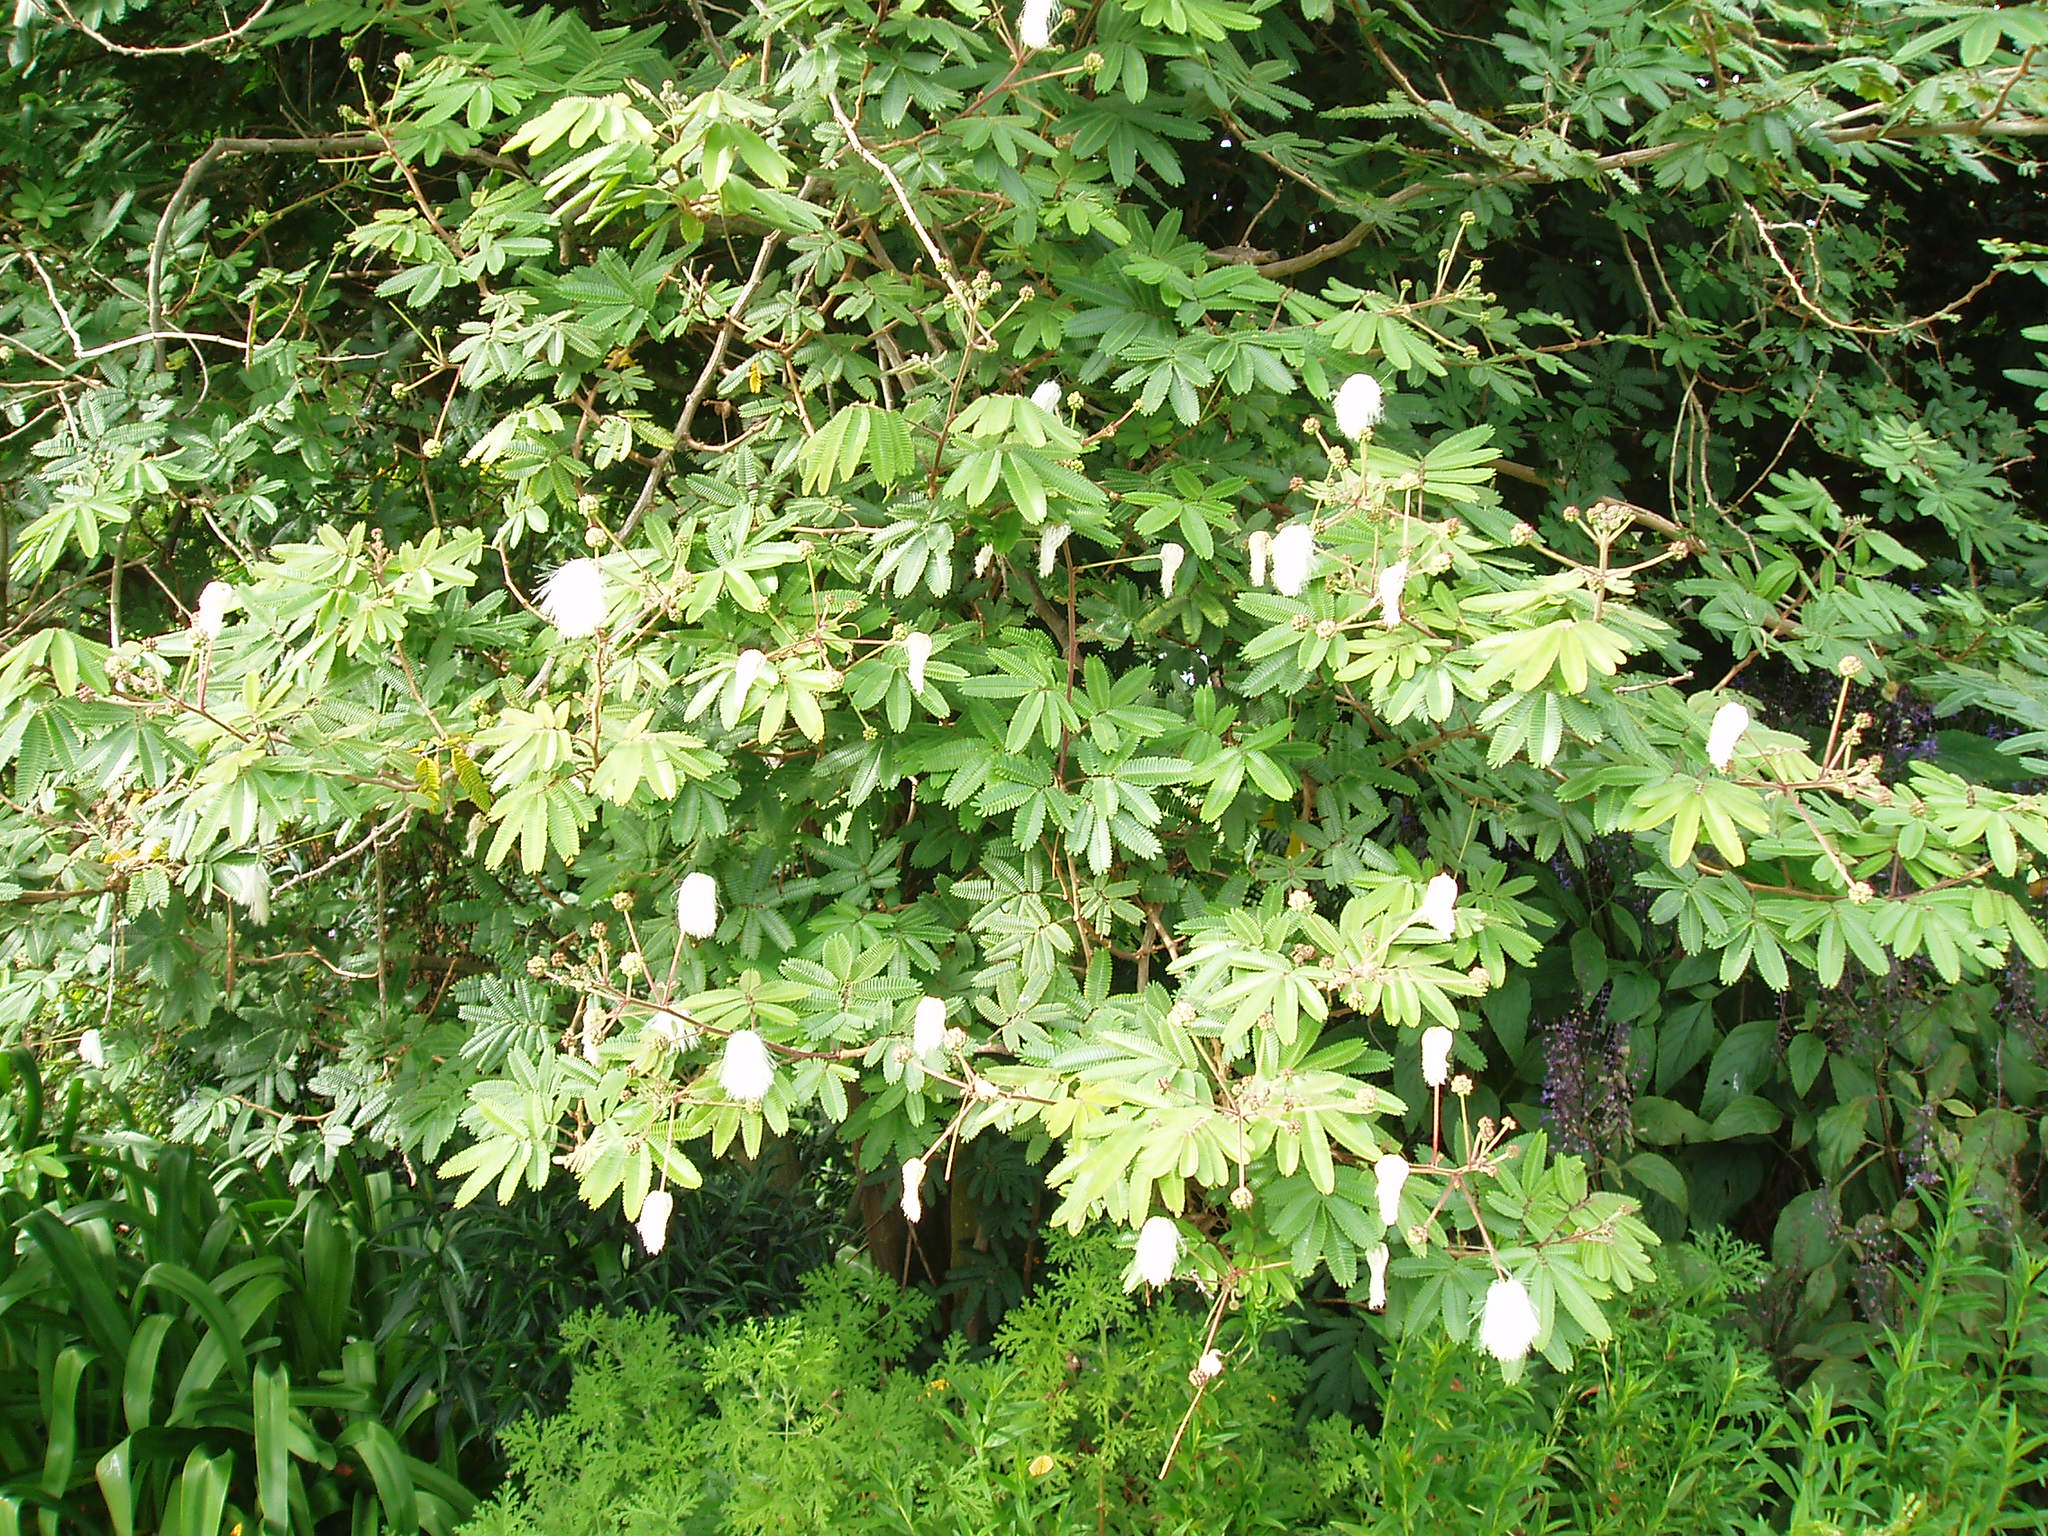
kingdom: Plantae
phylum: Tracheophyta
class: Magnoliopsida
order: Fabales
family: Fabaceae
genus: Zapoteca
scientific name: Zapoteca portoricensis
